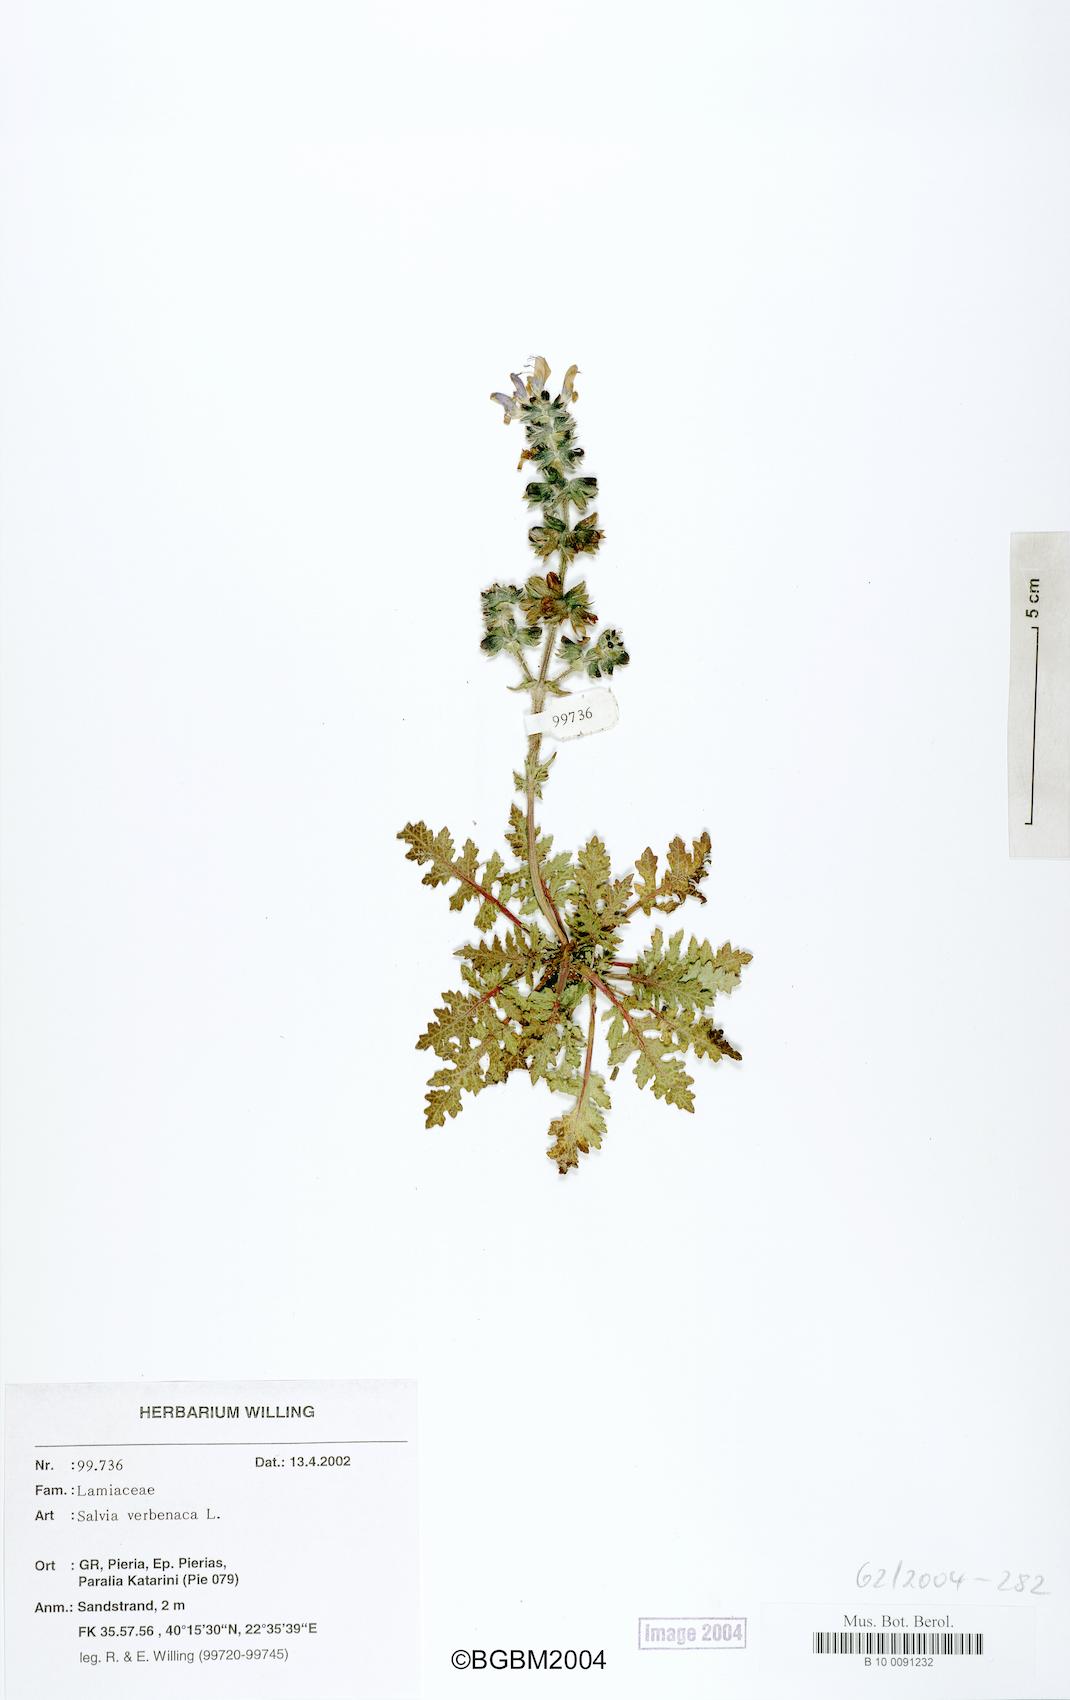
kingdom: Plantae
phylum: Tracheophyta
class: Magnoliopsida
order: Lamiales
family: Lamiaceae
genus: Salvia
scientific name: Salvia verbenaca
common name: Wild clary
